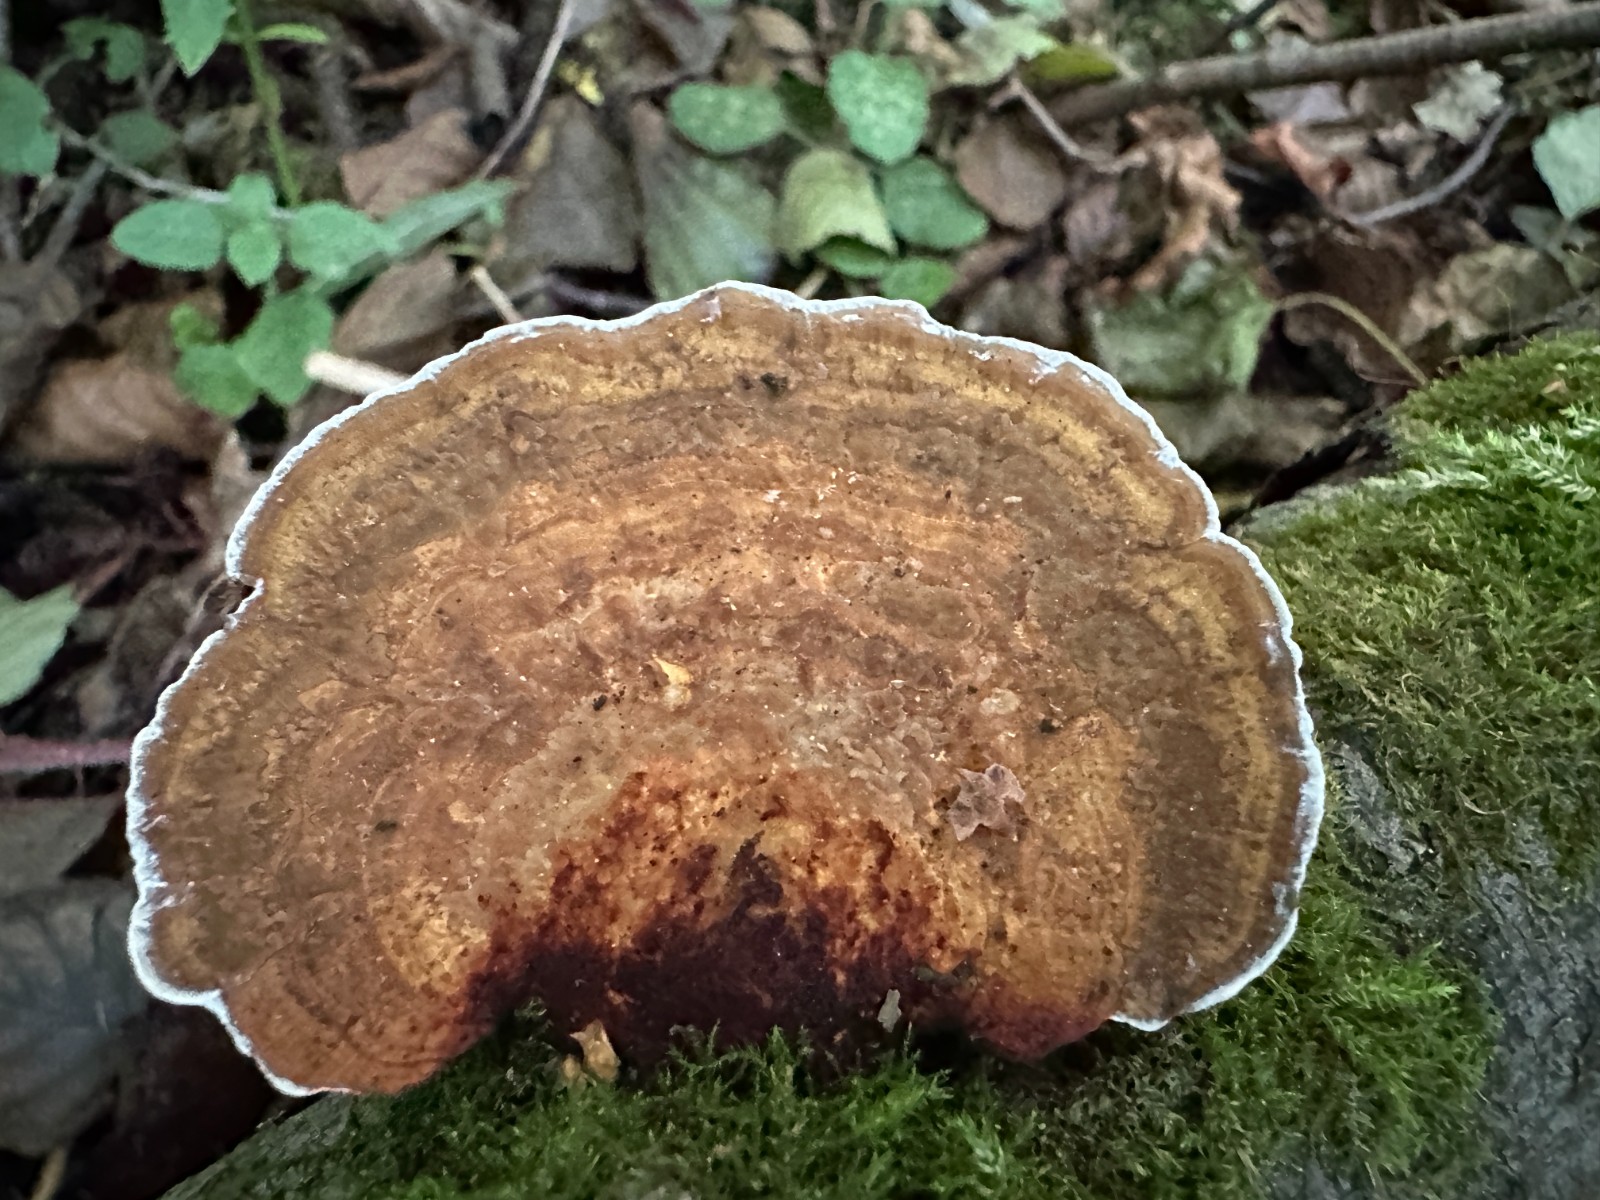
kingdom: Fungi
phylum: Basidiomycota
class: Agaricomycetes
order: Polyporales
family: Polyporaceae
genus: Daedaleopsis
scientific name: Daedaleopsis confragosa
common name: rødmende læderporesvamp
